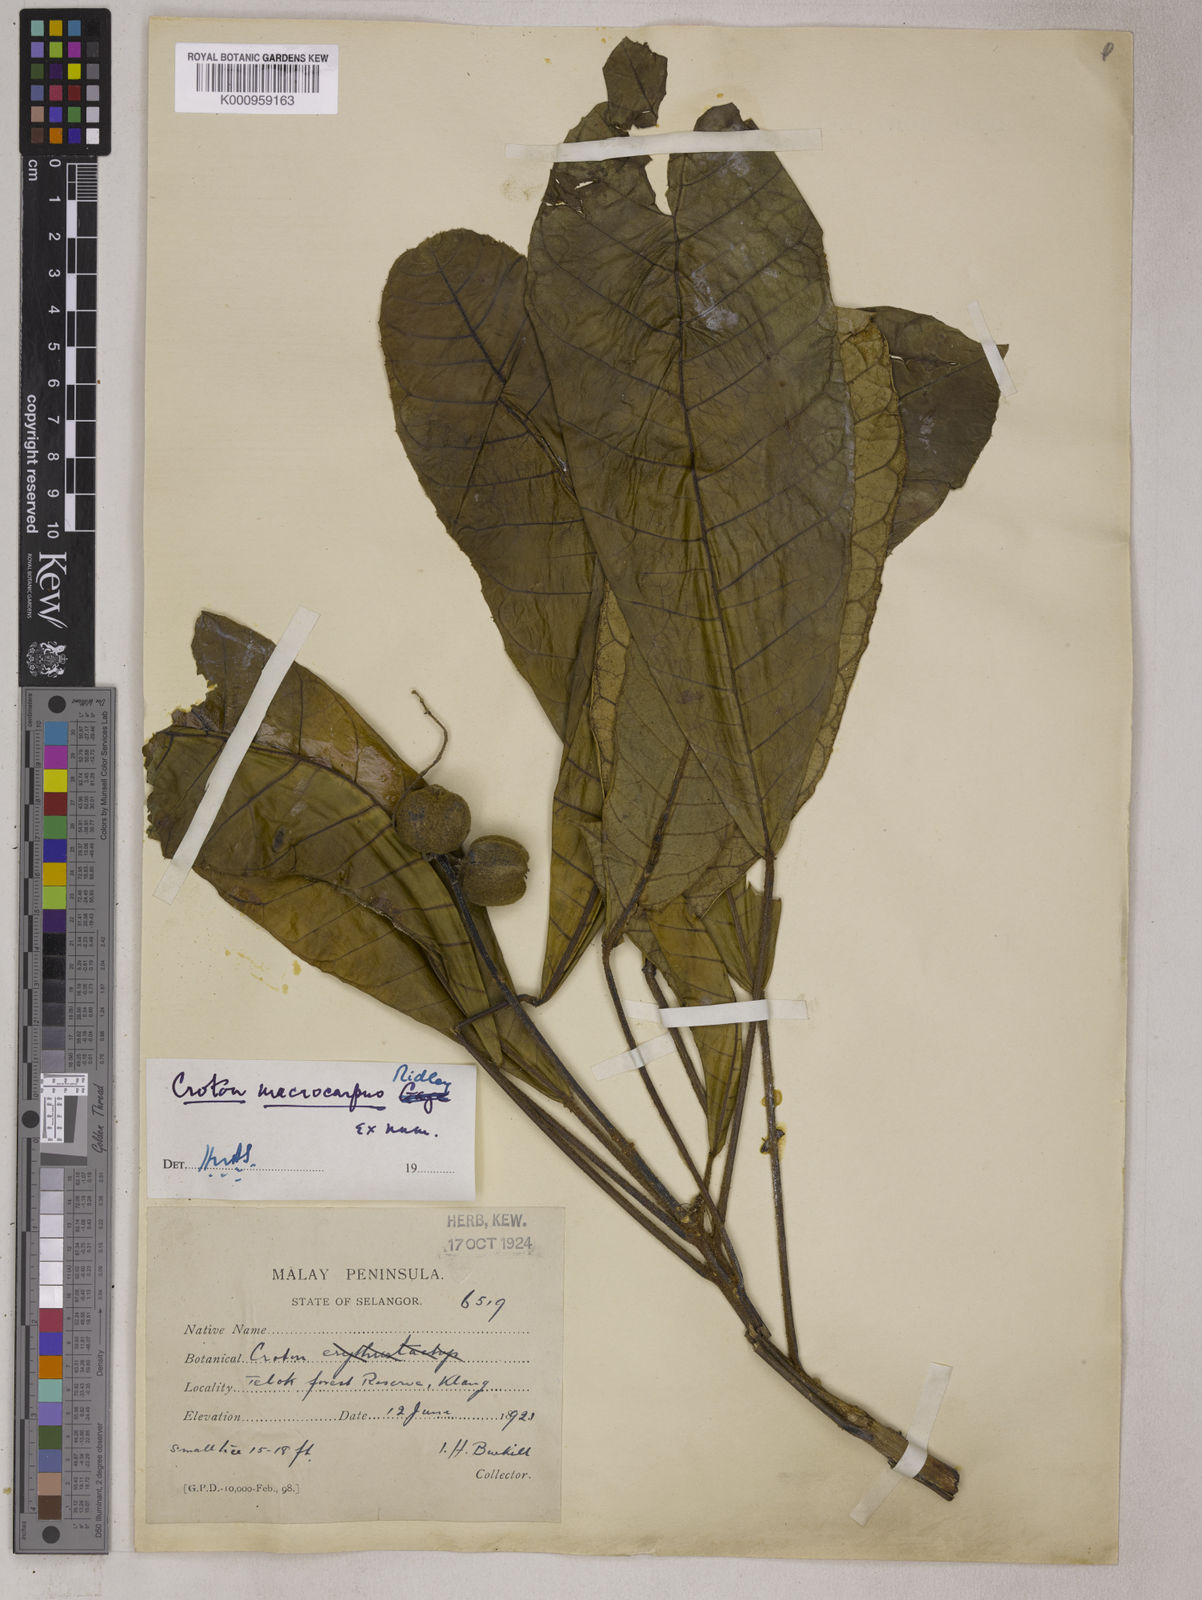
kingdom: Plantae
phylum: Tracheophyta
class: Magnoliopsida
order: Malpighiales
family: Euphorbiaceae
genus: Croton
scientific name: Croton macrocarpus
